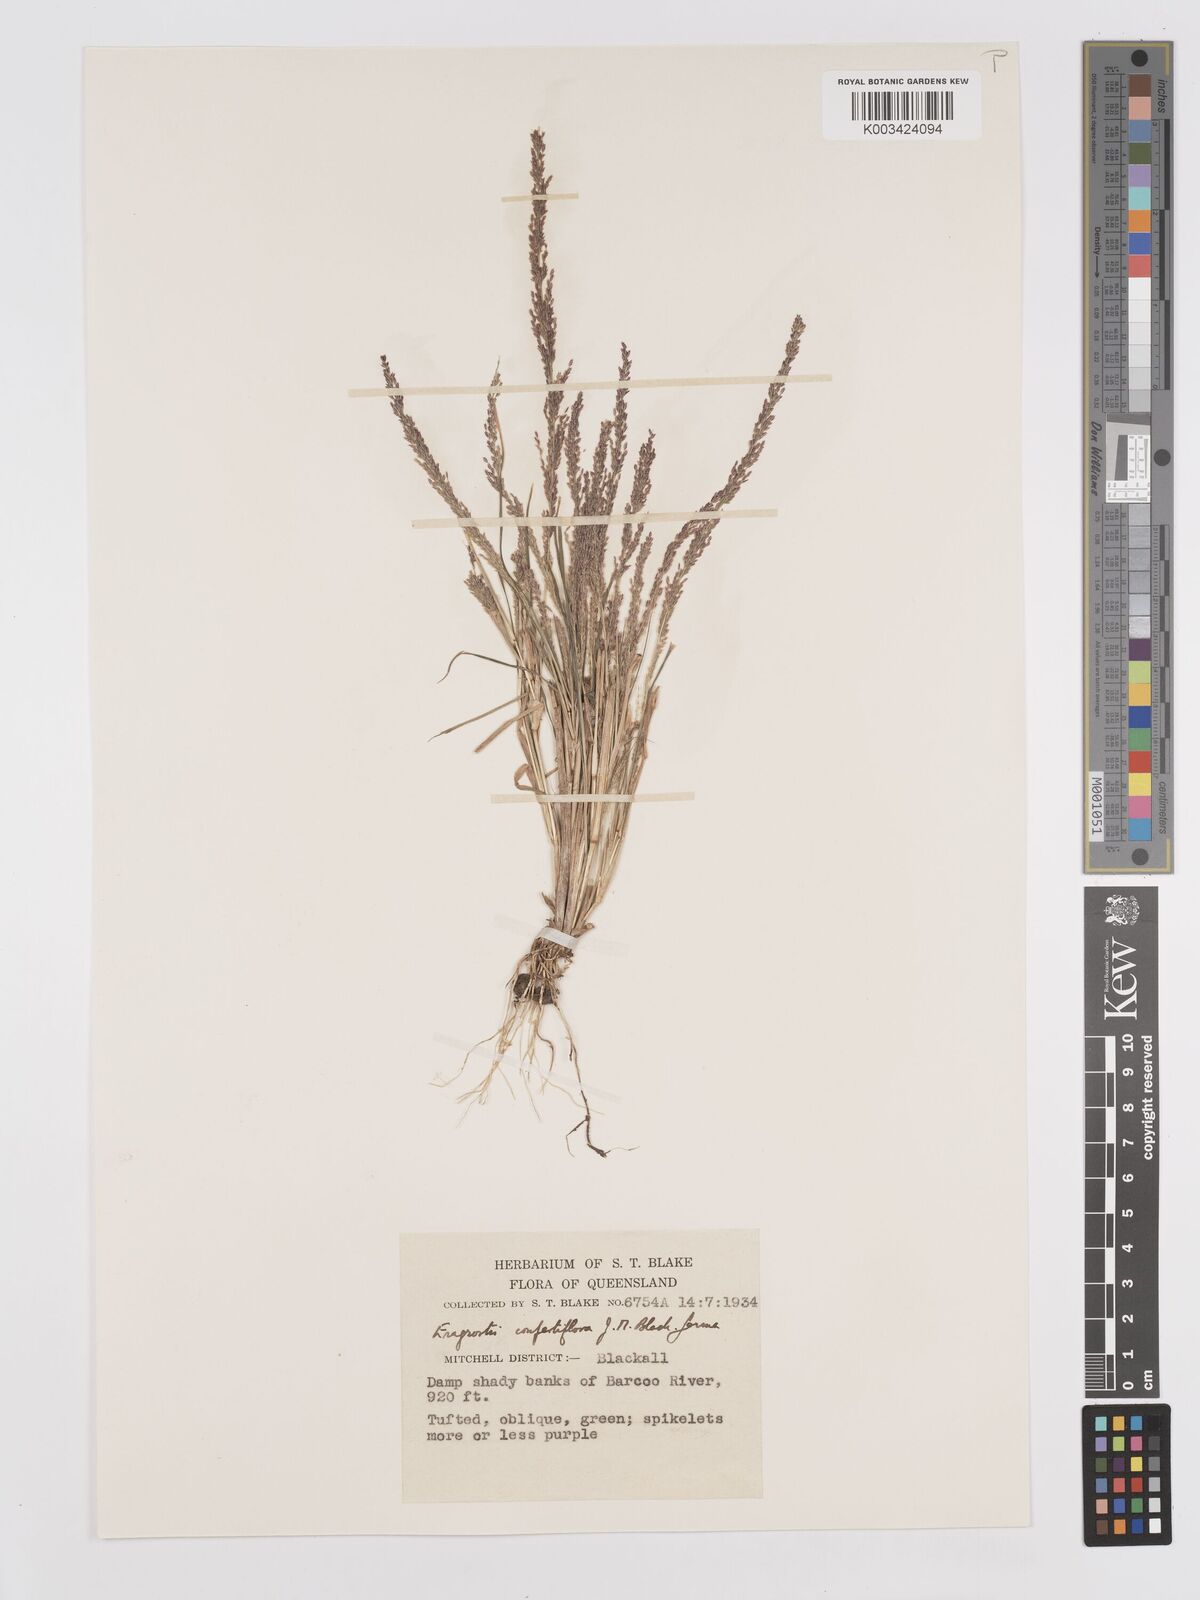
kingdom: Plantae
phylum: Tracheophyta
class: Liliopsida
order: Poales
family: Poaceae
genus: Eragrostis
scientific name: Eragrostis confertiflora
